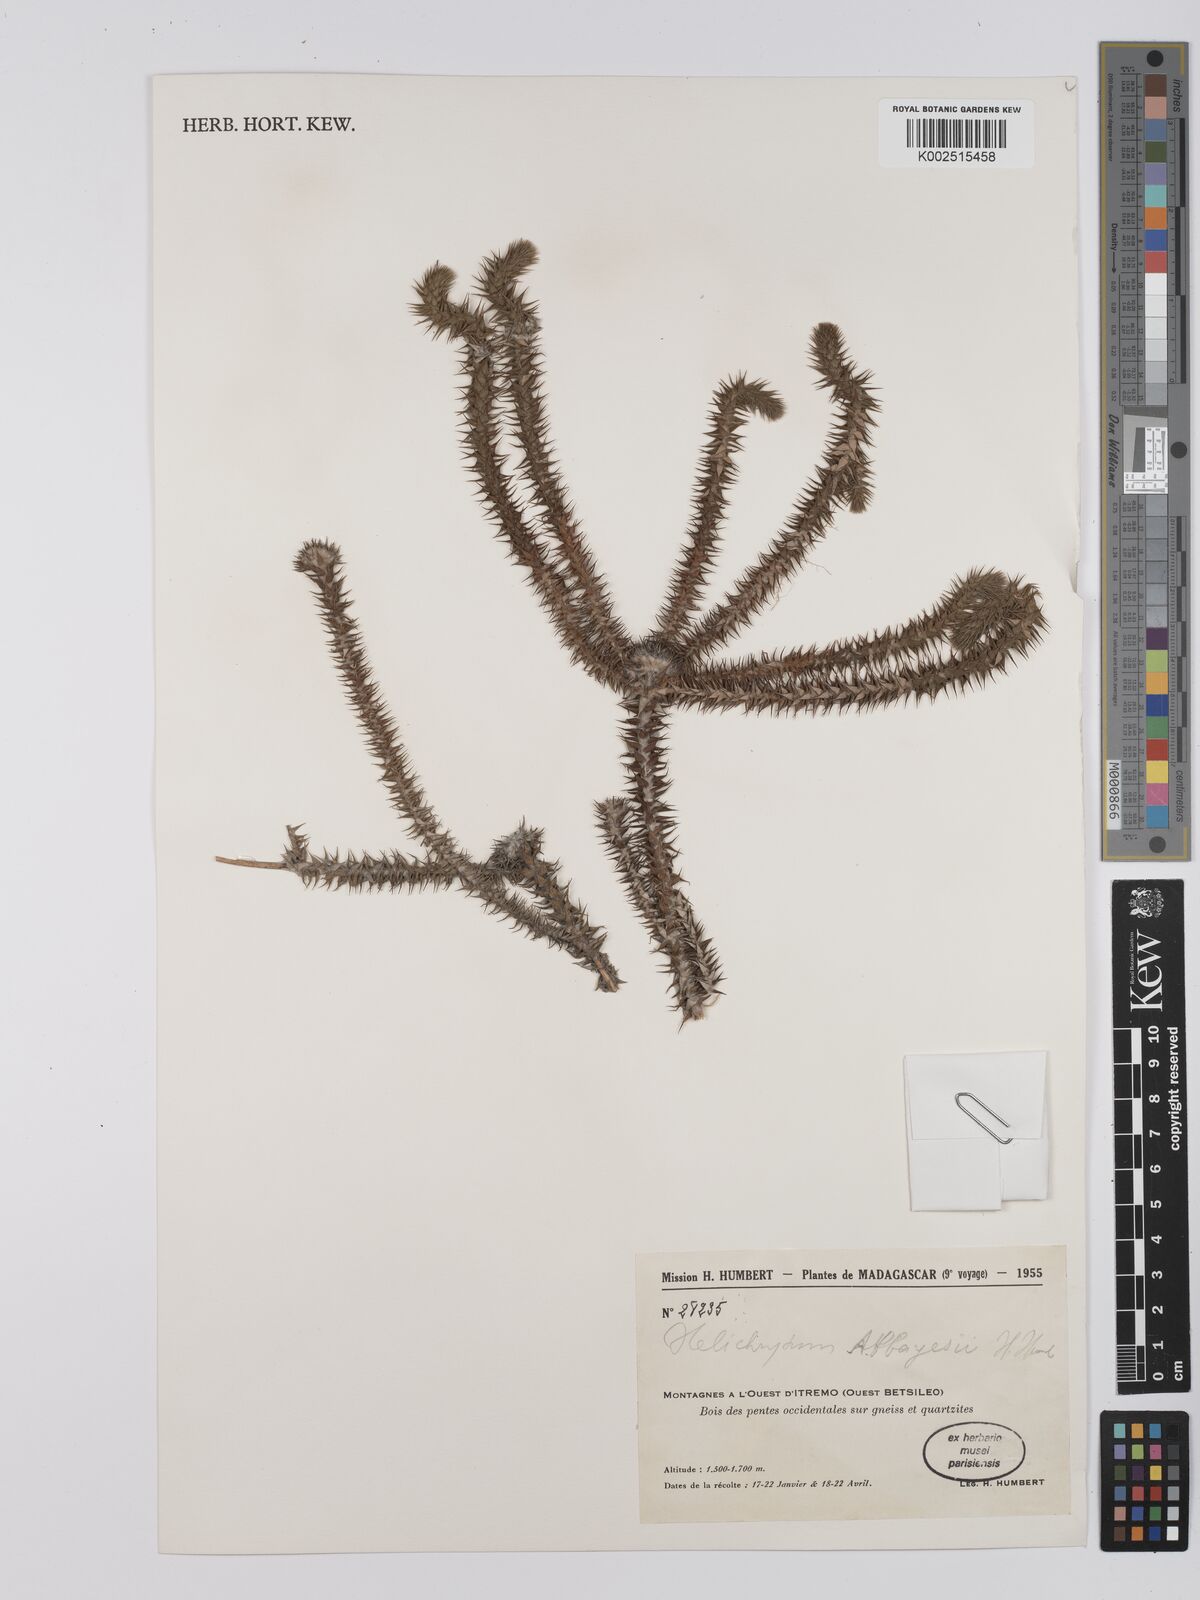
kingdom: Plantae
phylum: Tracheophyta
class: Magnoliopsida
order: Asterales
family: Asteraceae
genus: Helichrysum
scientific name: Helichrysum abbayesii
